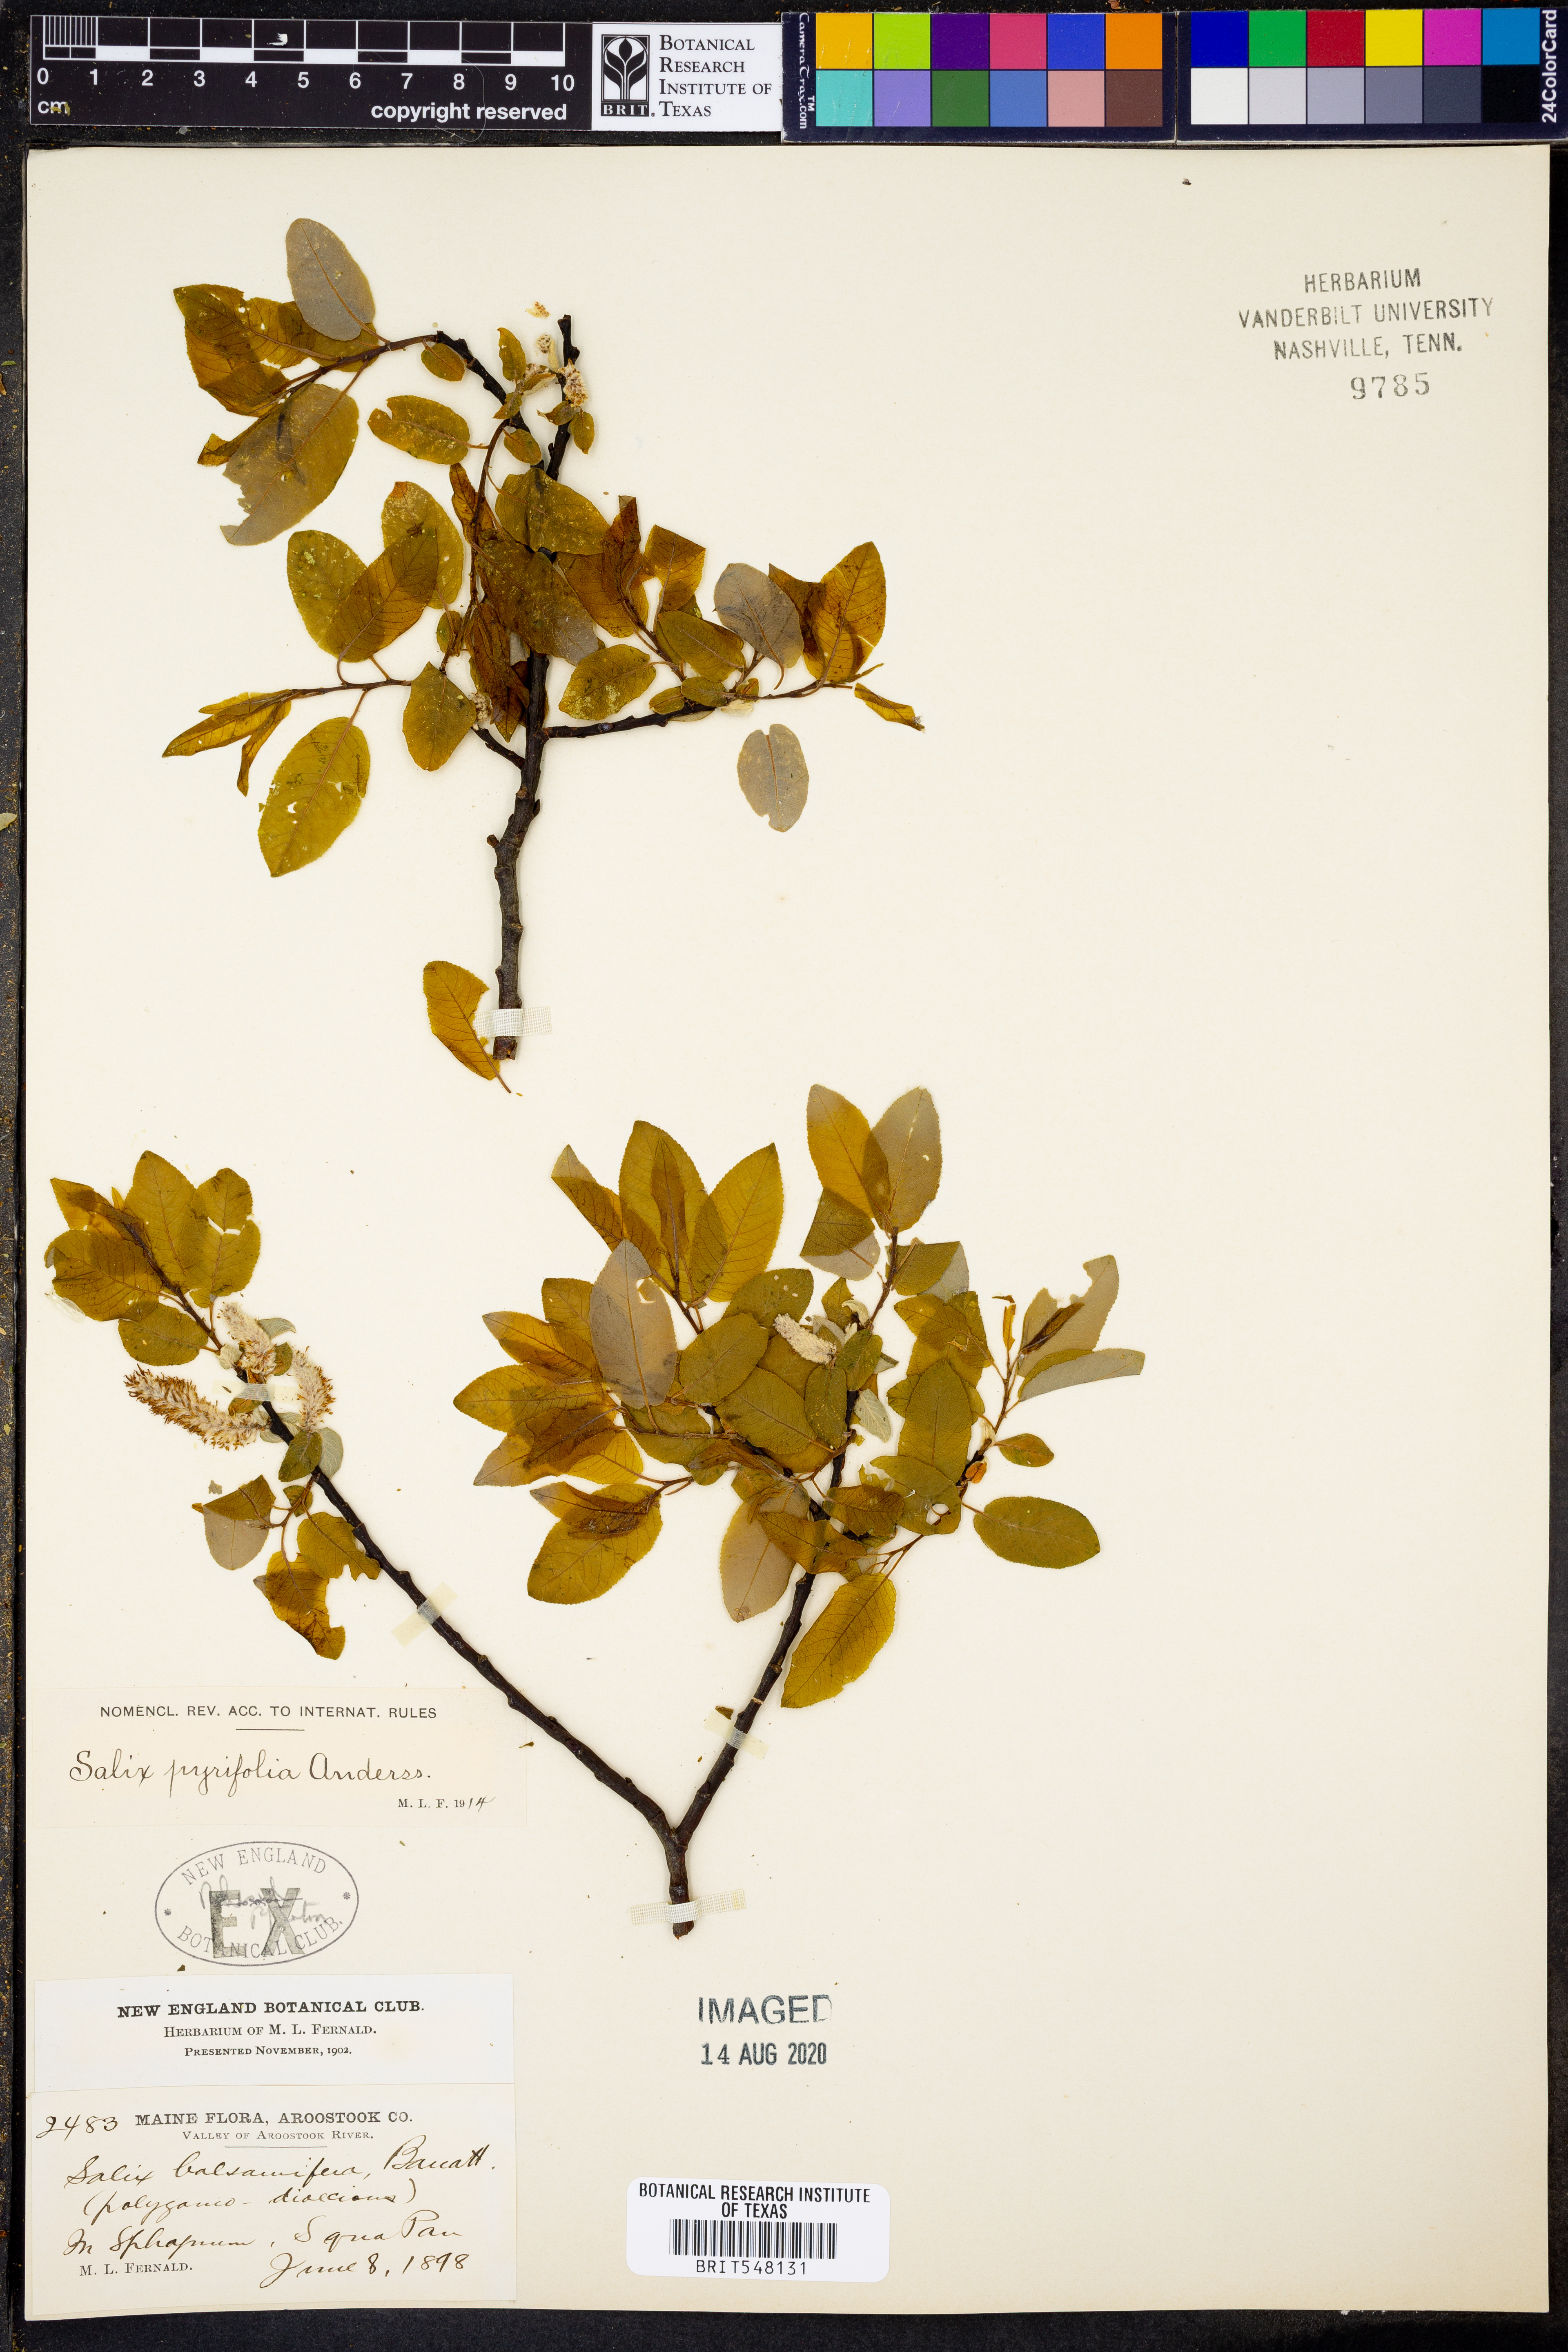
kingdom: Plantae
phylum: Tracheophyta
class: Magnoliopsida
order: Malpighiales
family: Salicaceae
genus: Salix
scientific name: Salix pyrifolia
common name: Balsam willow
